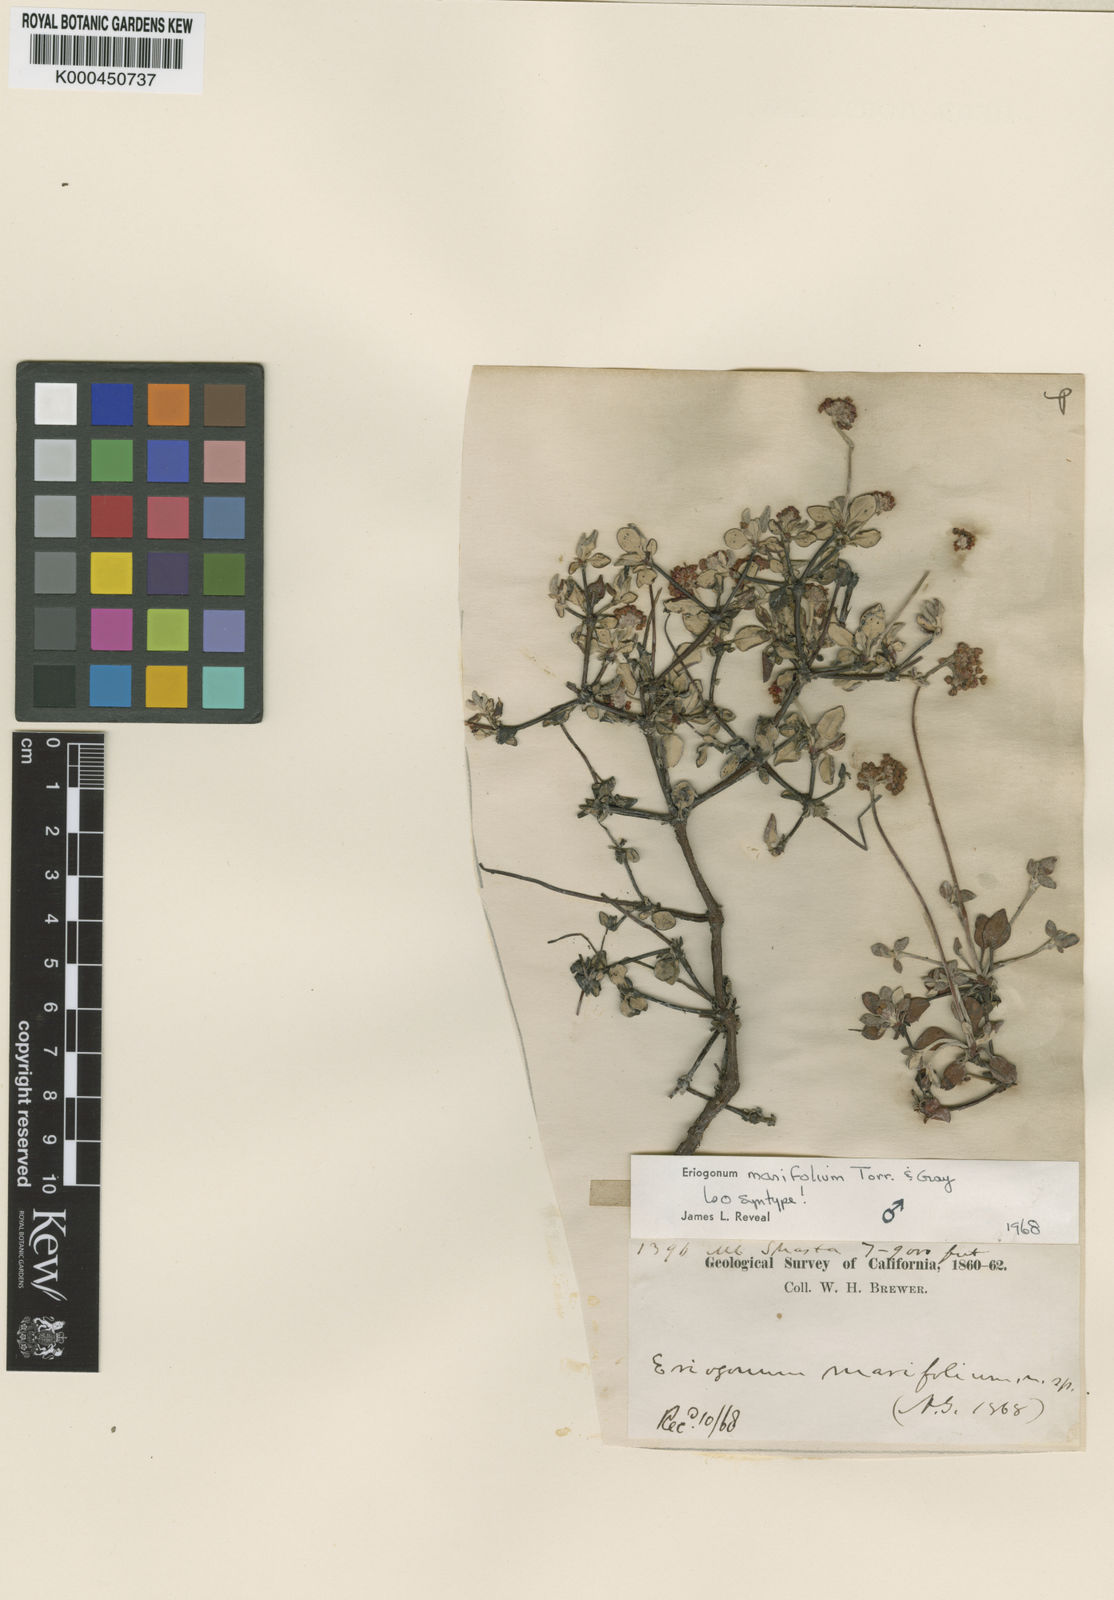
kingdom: Plantae
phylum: Tracheophyta
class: Magnoliopsida
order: Caryophyllales
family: Polygonaceae
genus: Eriogonum
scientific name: Eriogonum marifolium
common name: Marum-leaf wild buckwheat
